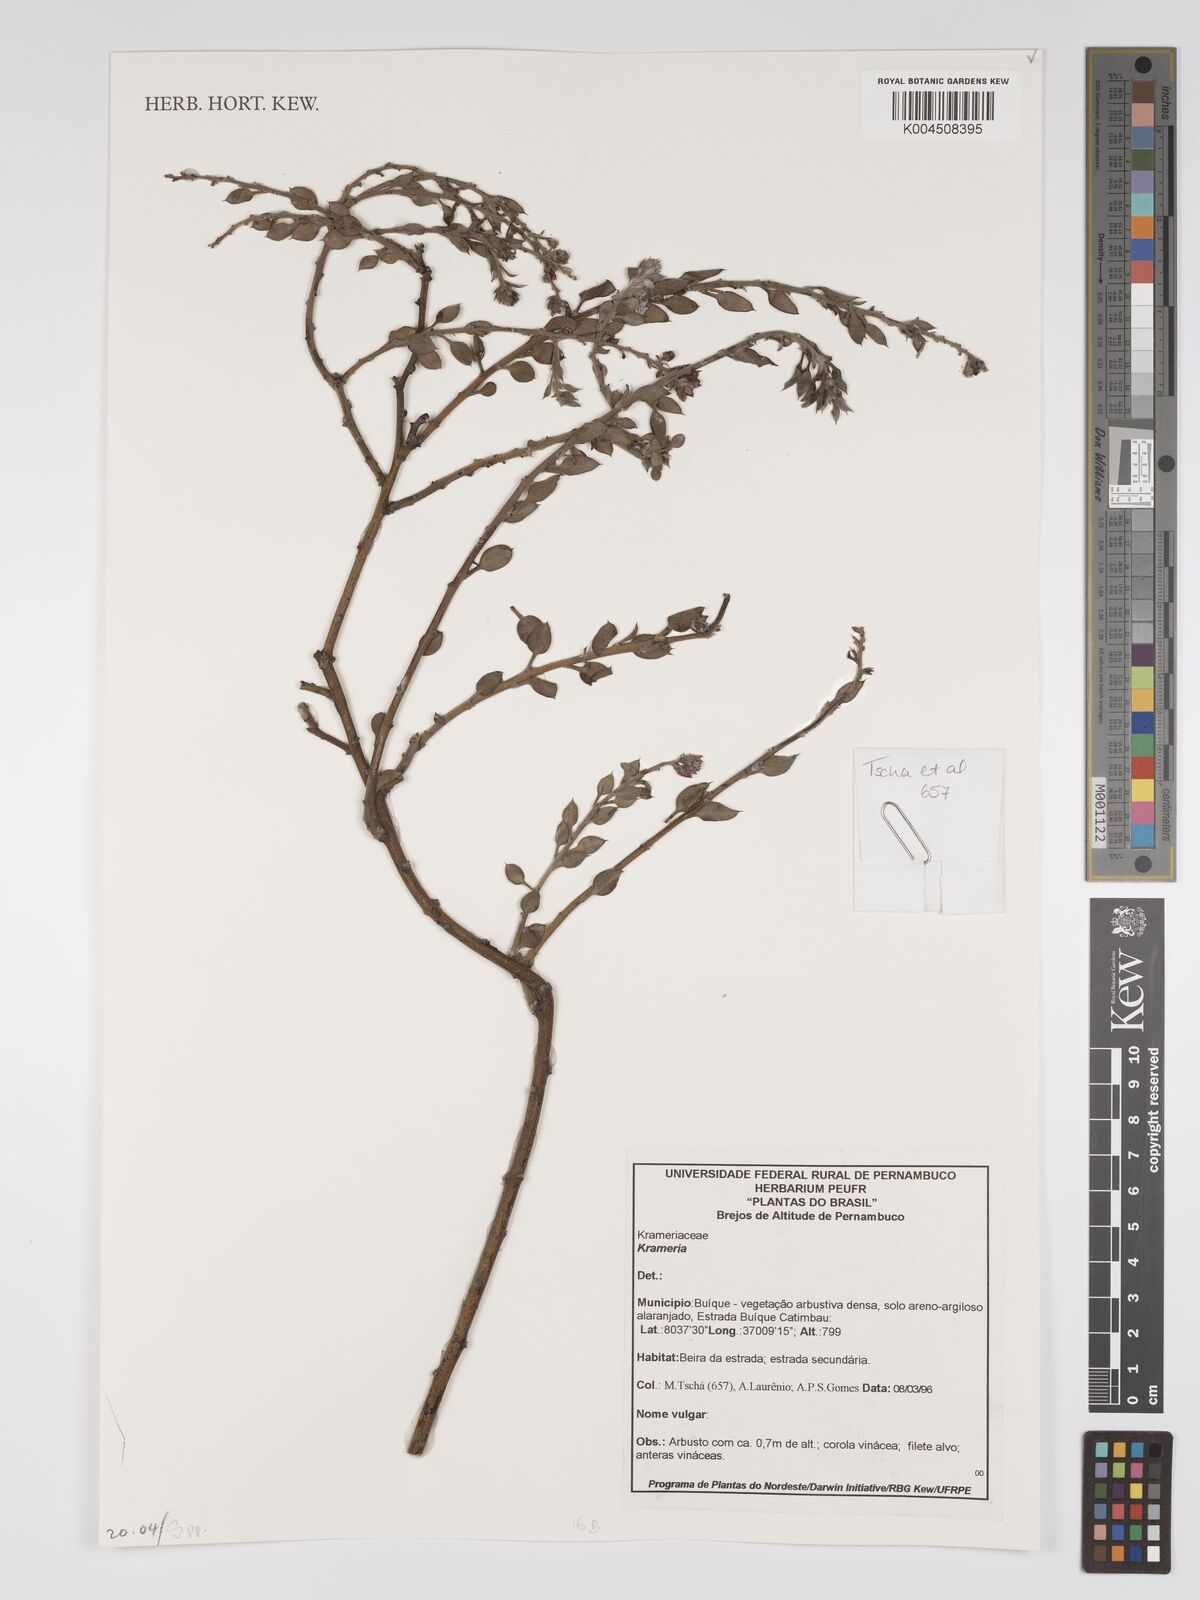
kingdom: Plantae
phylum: Tracheophyta
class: Magnoliopsida
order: Zygophyllales
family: Krameriaceae
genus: Krameria
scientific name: Krameria
